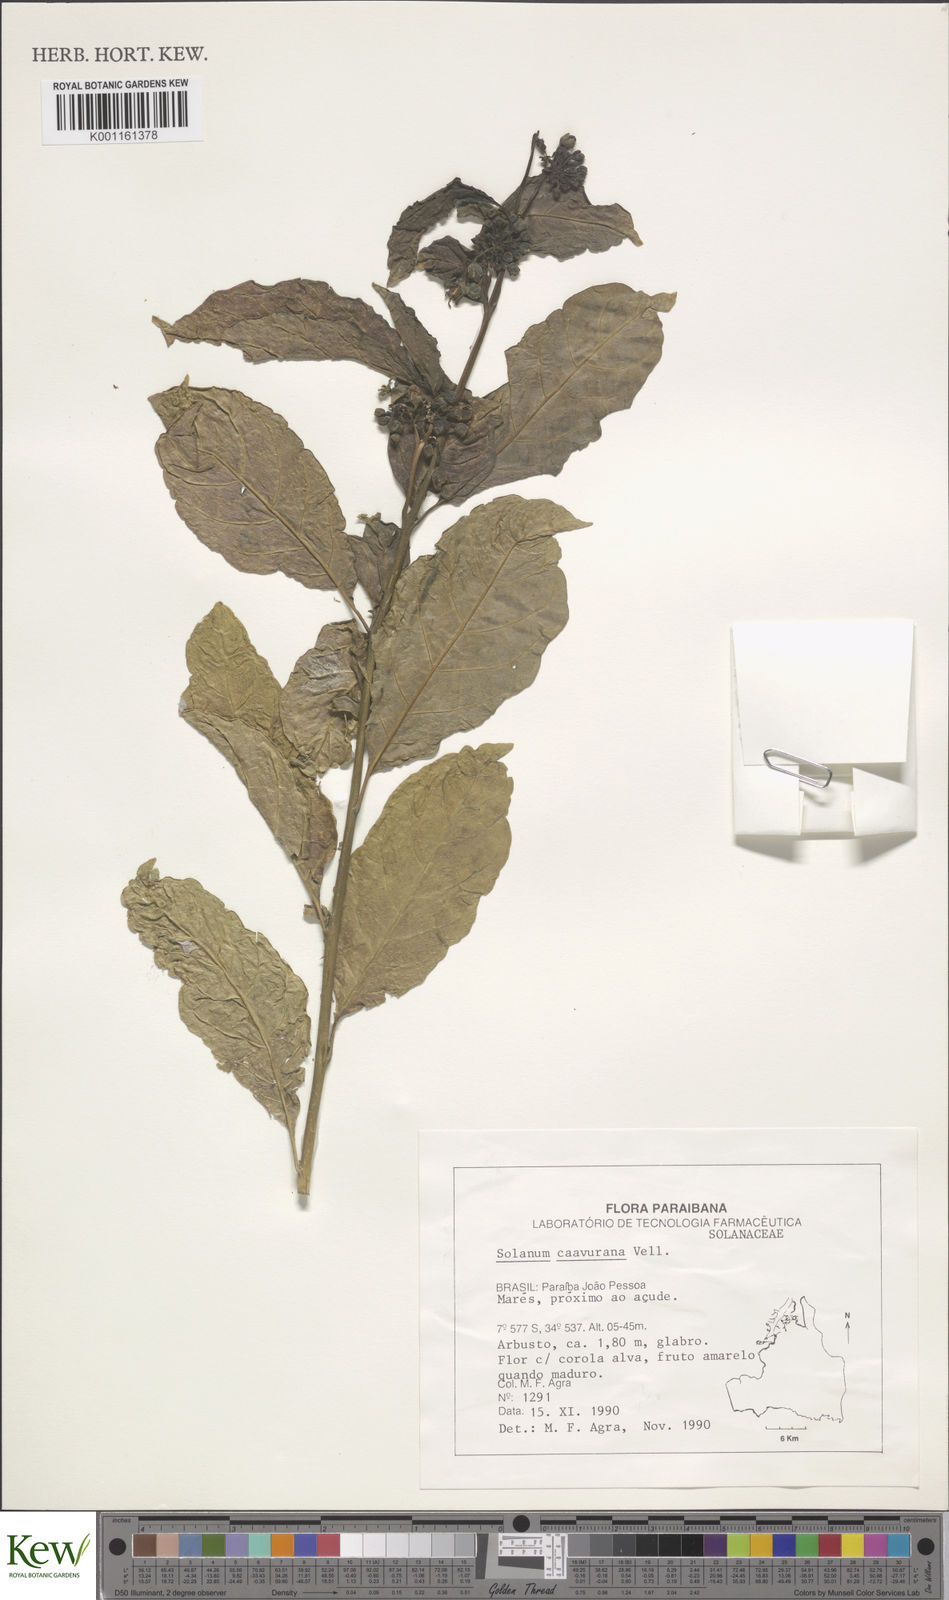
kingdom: Plantae
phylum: Tracheophyta
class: Magnoliopsida
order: Solanales
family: Solanaceae
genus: Solanum
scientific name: Solanum caavurana
